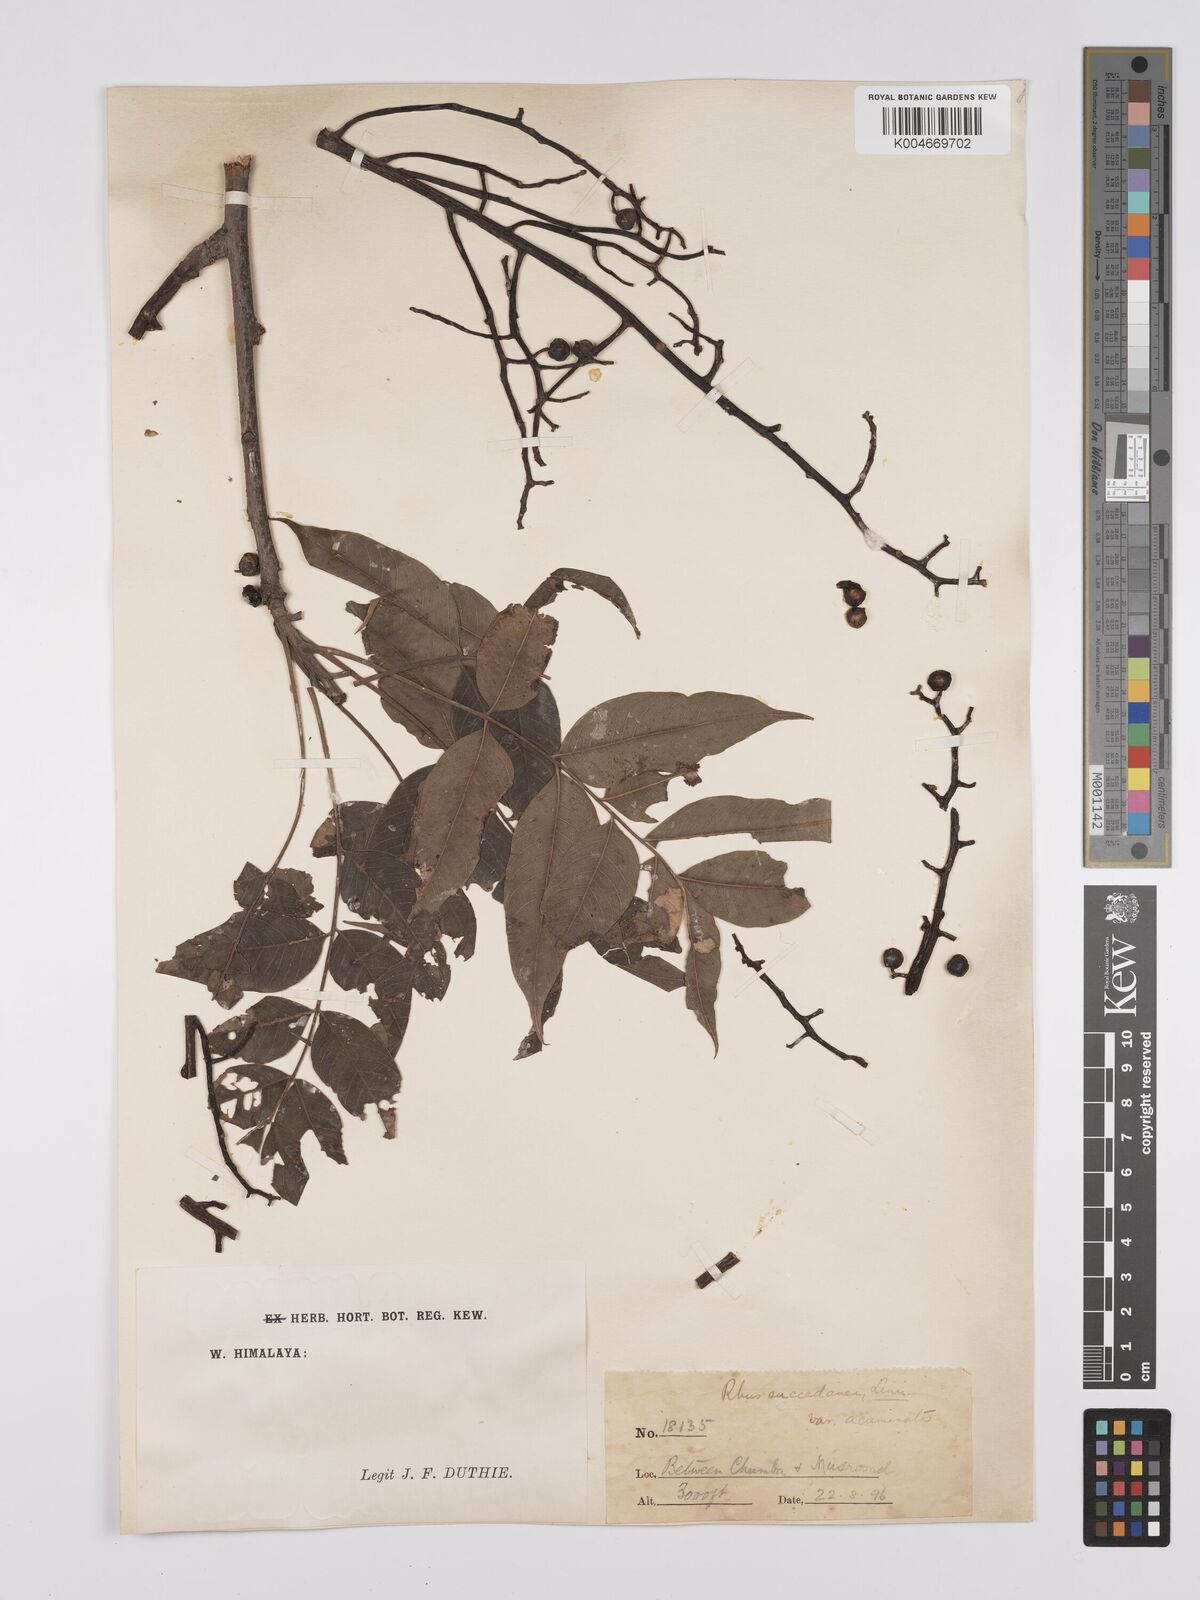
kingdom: Plantae
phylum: Tracheophyta
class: Magnoliopsida
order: Sapindales
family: Anacardiaceae
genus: Toxicodendron
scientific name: Toxicodendron succedaneum
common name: Wax tree
